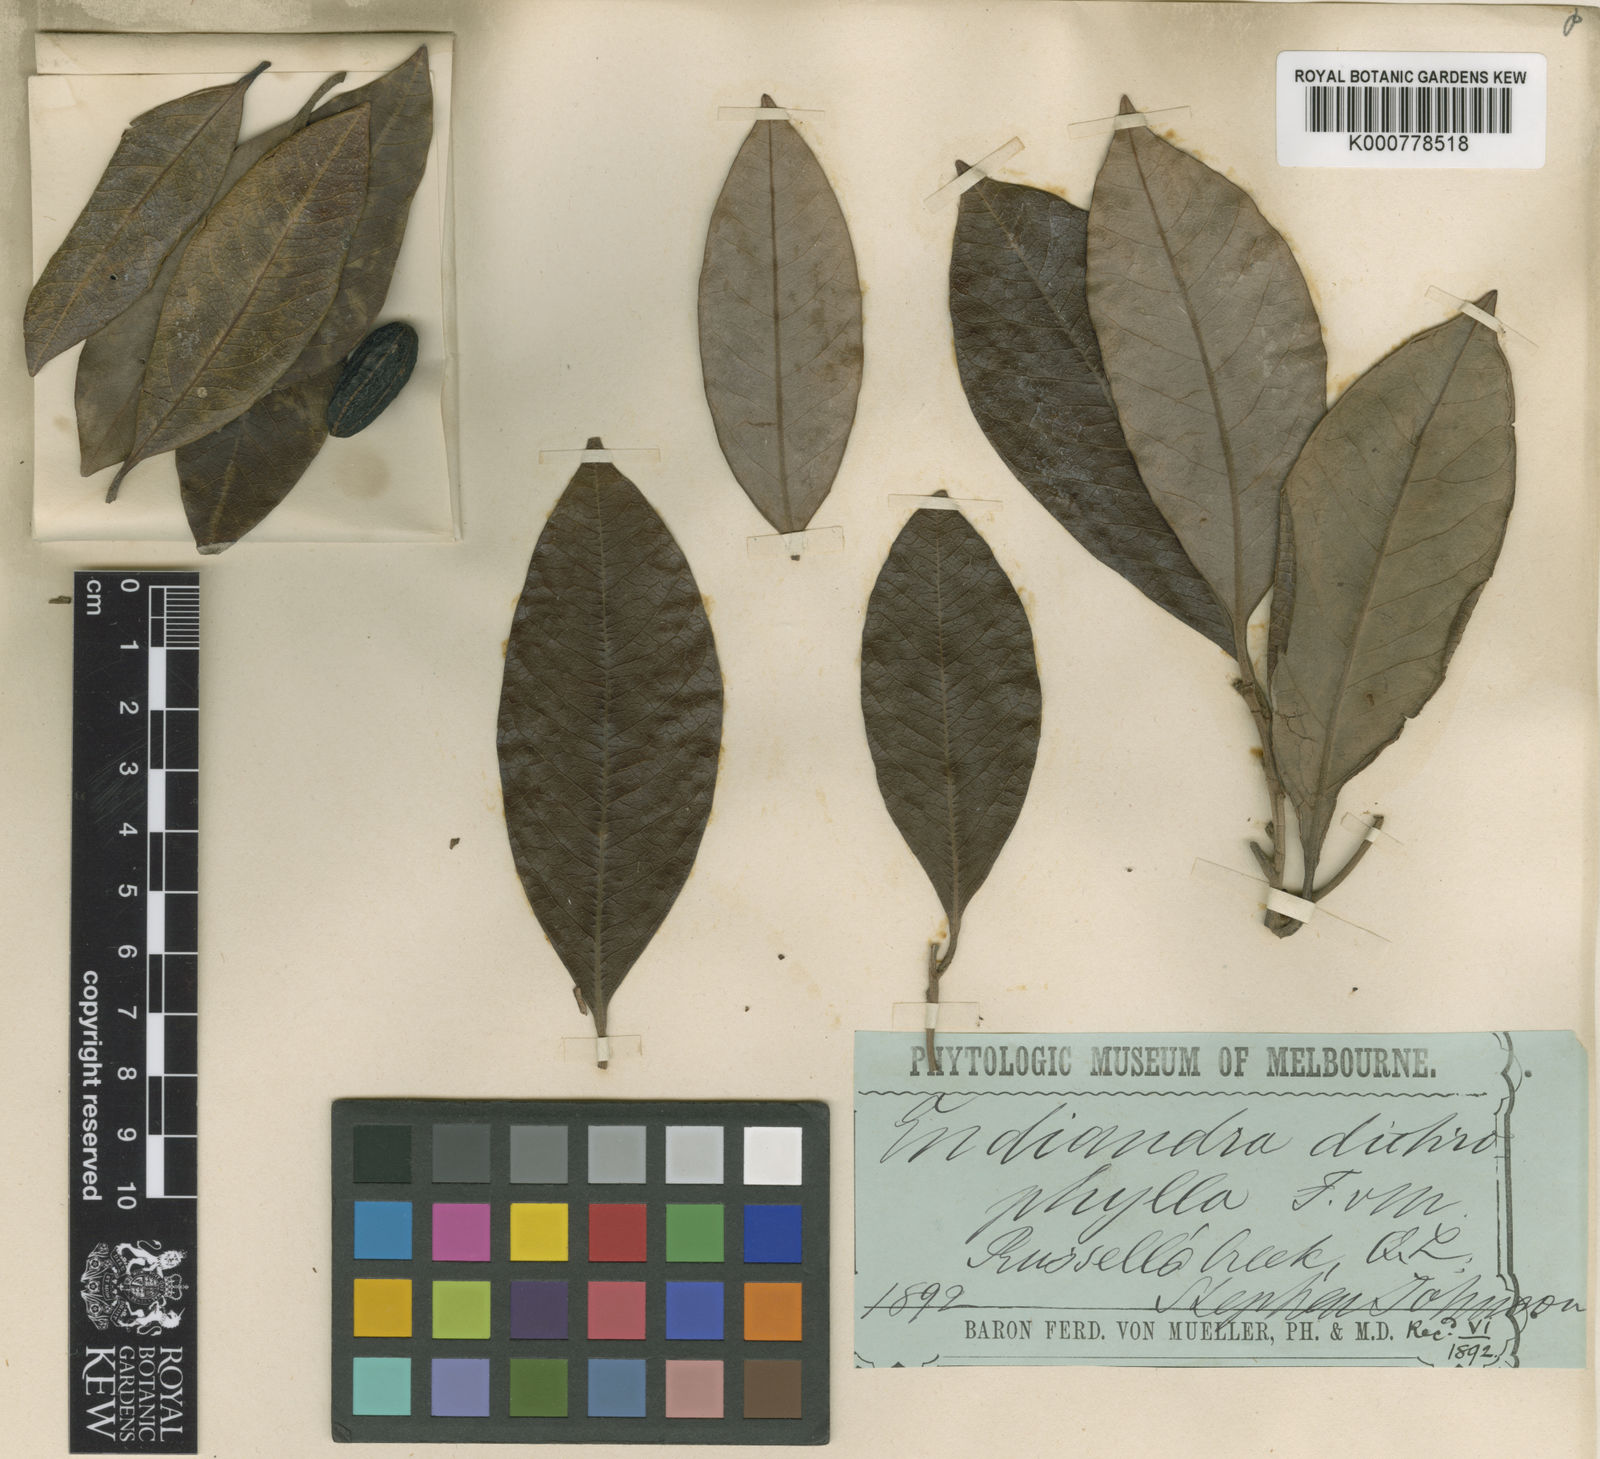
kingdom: Plantae
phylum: Tracheophyta
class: Magnoliopsida
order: Laurales
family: Lauraceae
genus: Endiandra
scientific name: Endiandra dichrophylla
